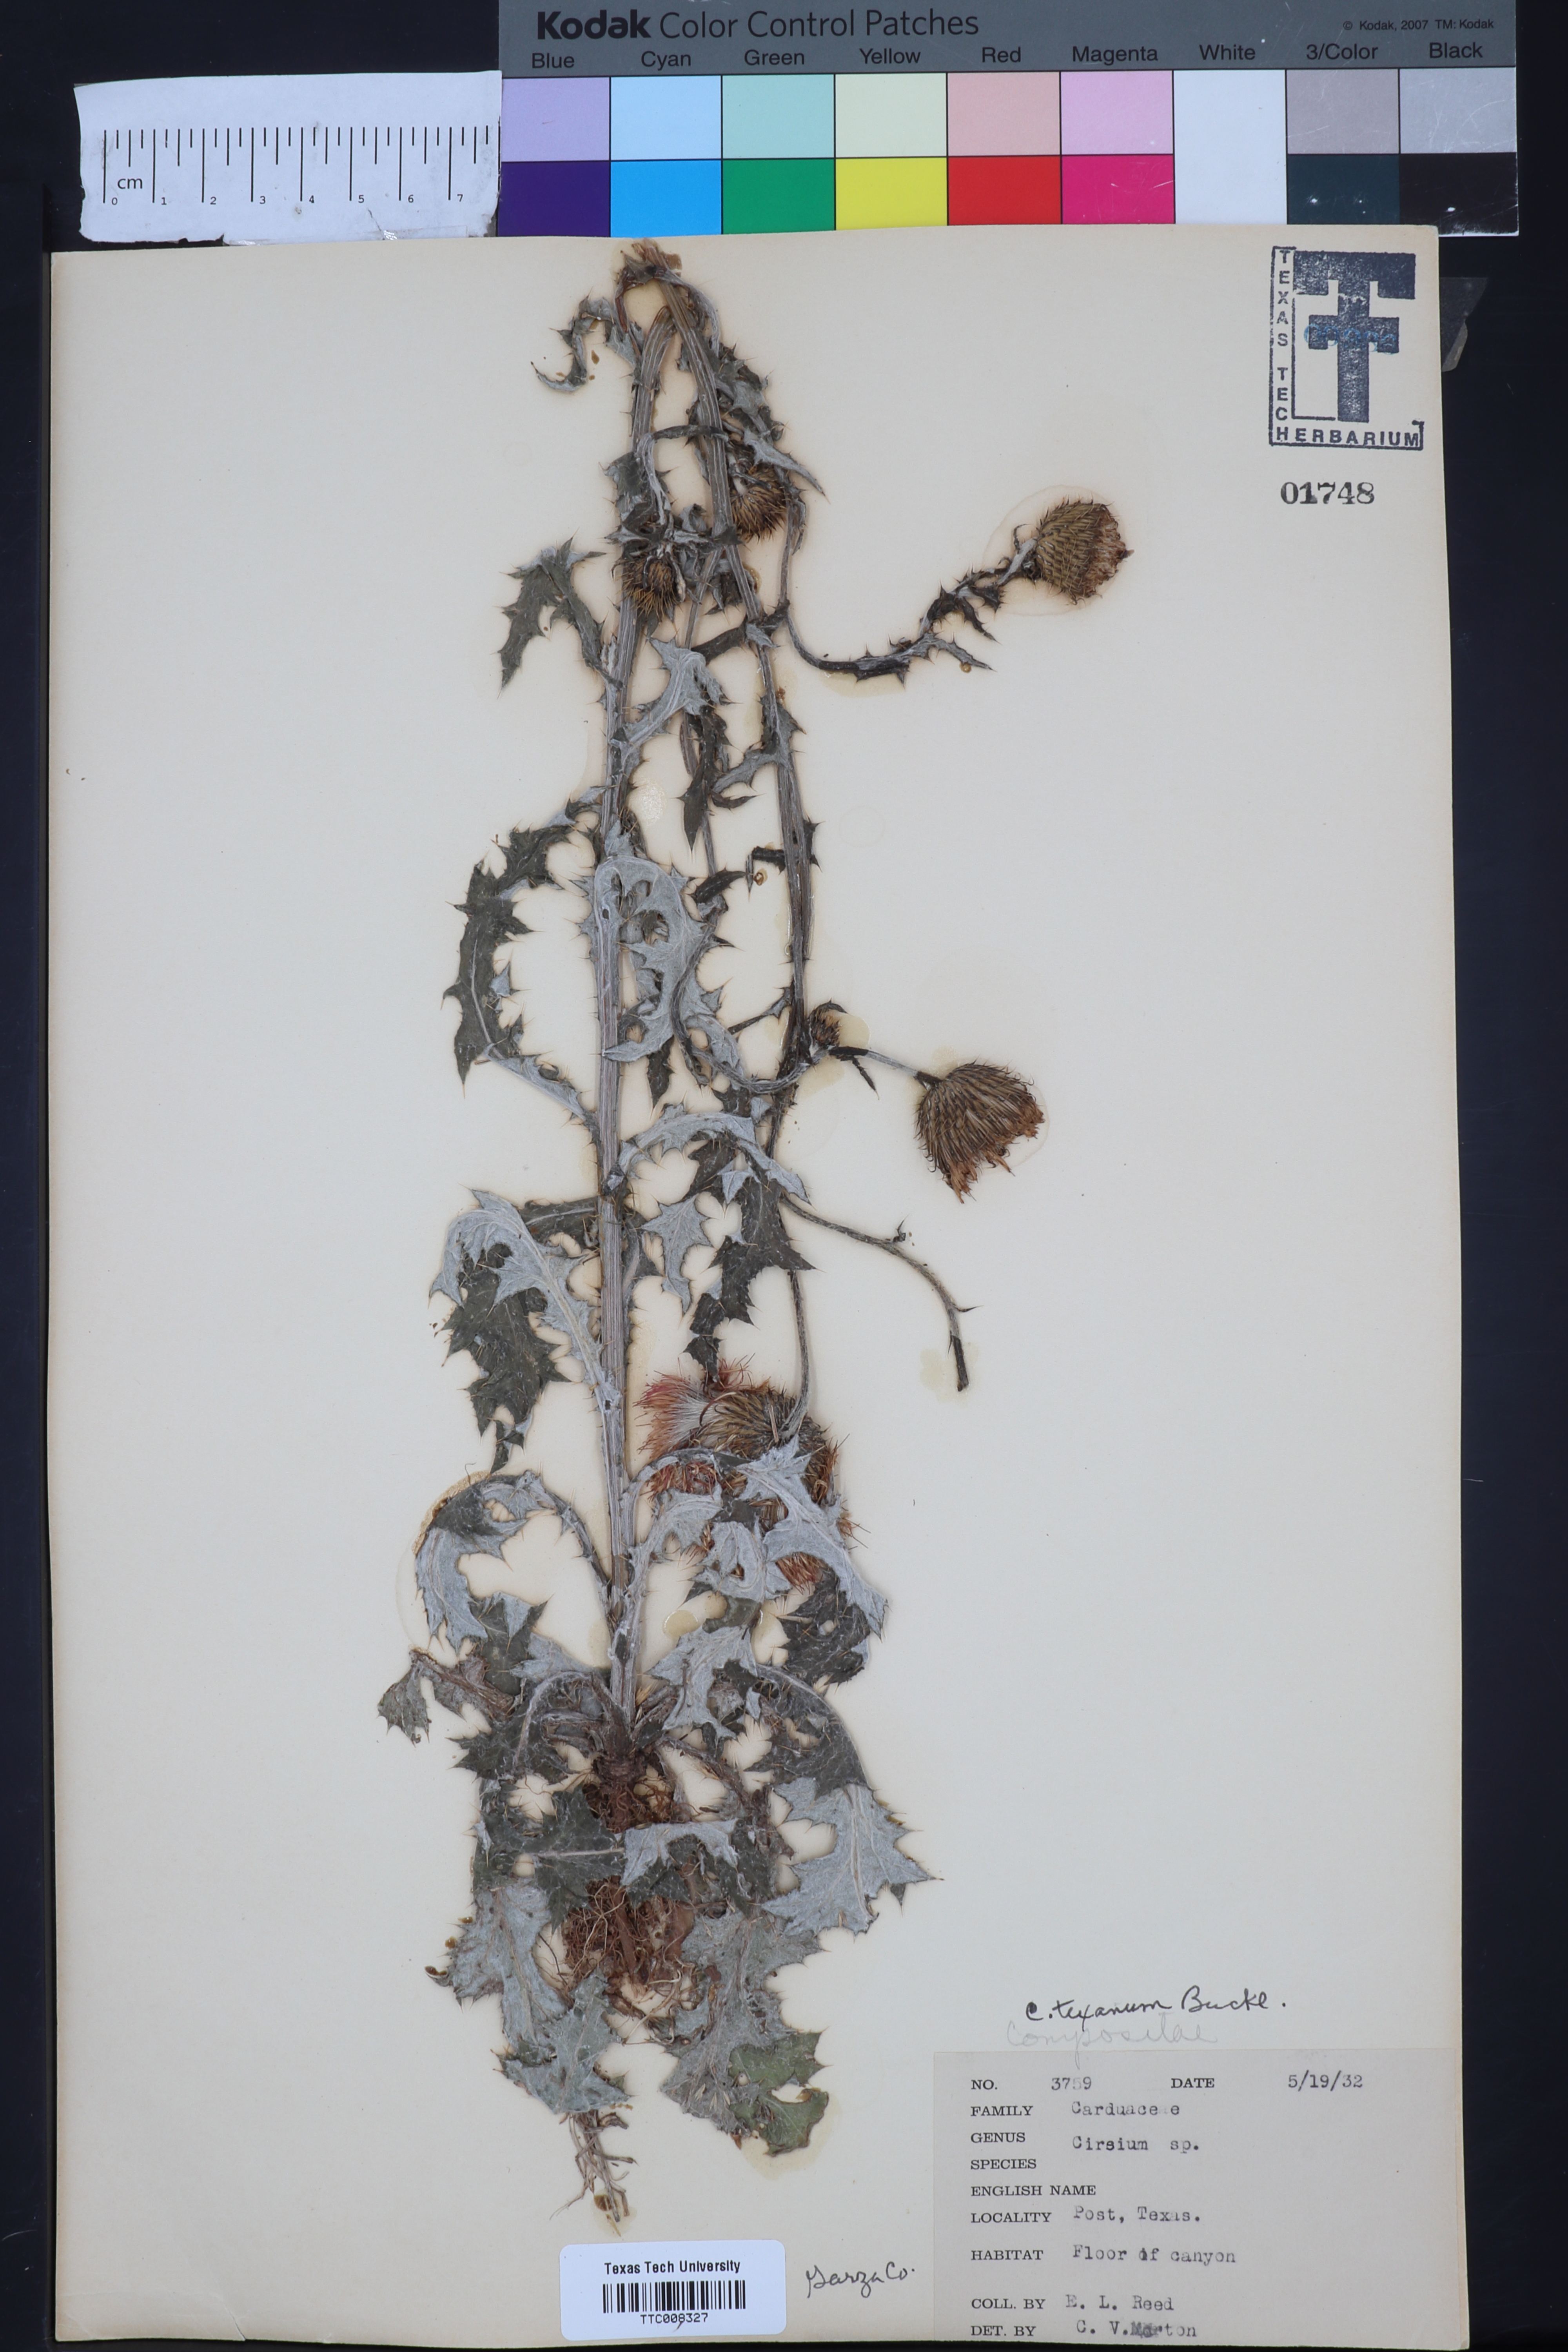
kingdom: Plantae
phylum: Tracheophyta
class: Magnoliopsida
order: Asterales
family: Asteraceae
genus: Cirsium
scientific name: Cirsium texanum
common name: Texas purple thistle
